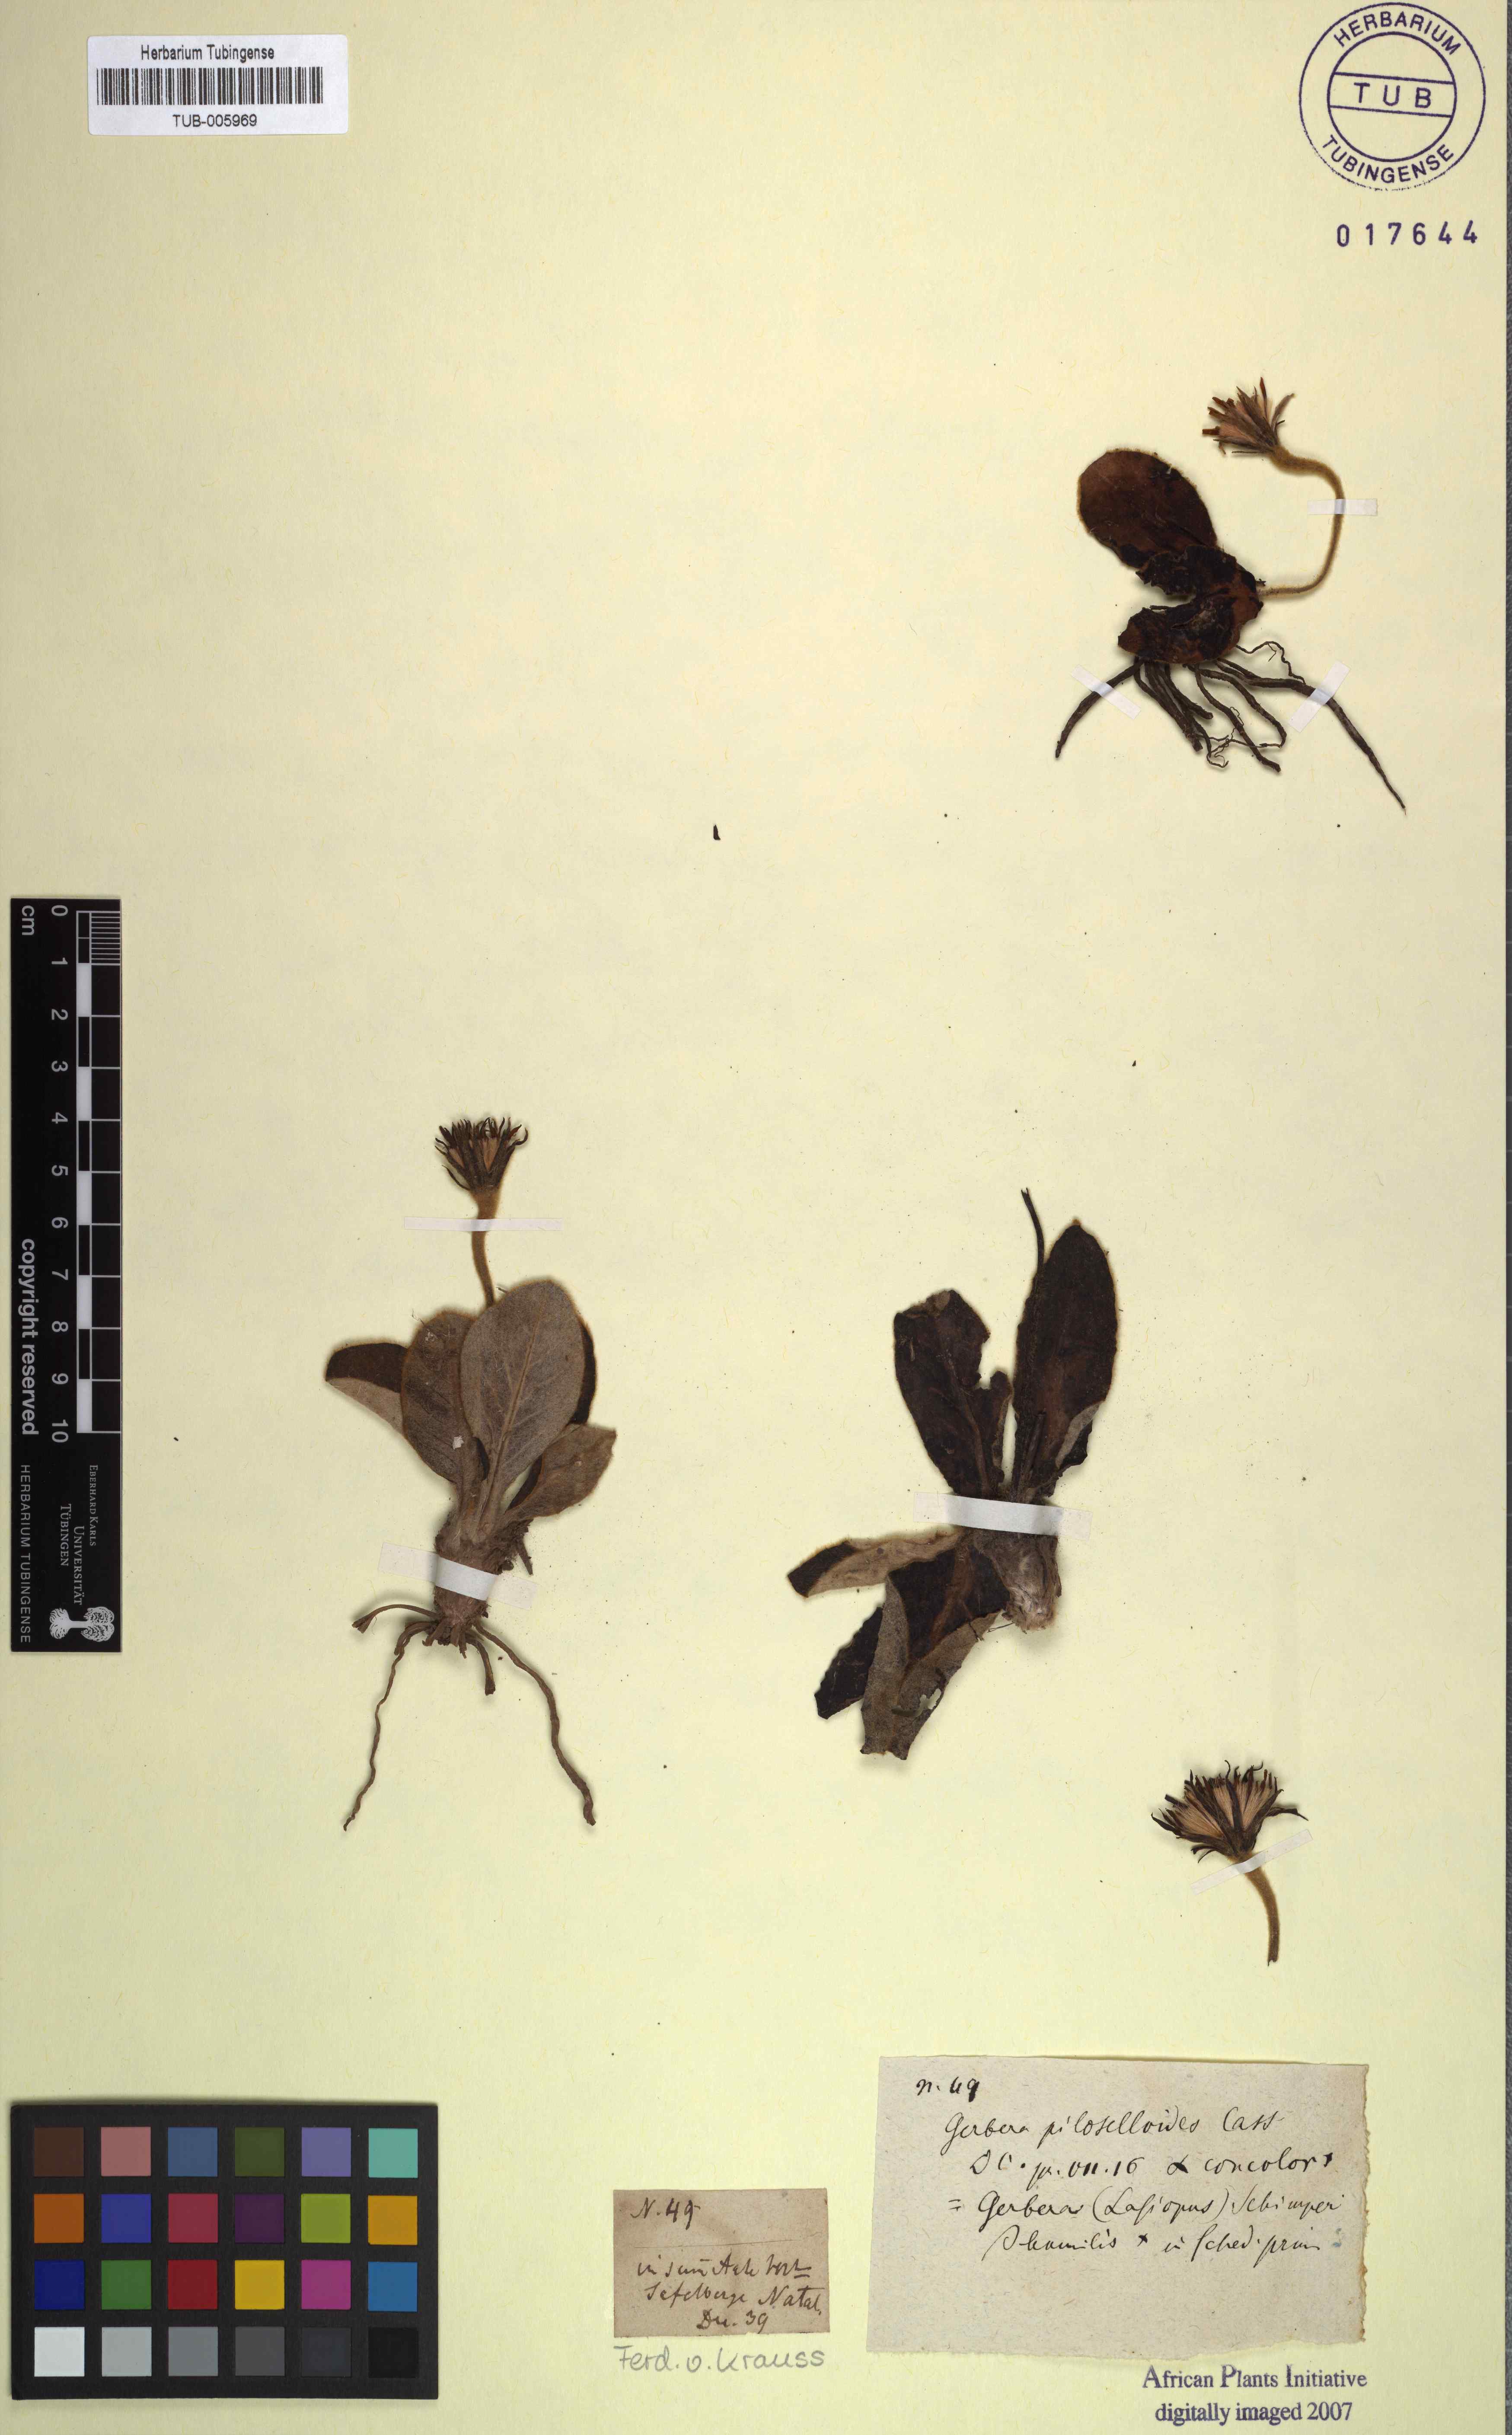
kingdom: Plantae
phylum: Tracheophyta
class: Magnoliopsida
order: Asterales
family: Asteraceae
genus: Piloselloides
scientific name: Piloselloides hirsuta
